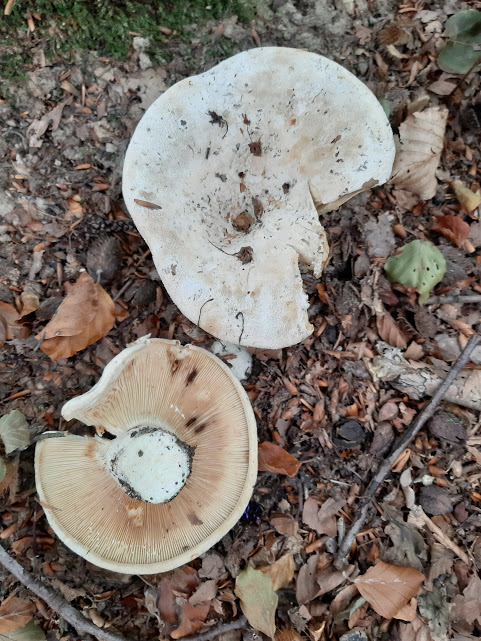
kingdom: Fungi
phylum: Basidiomycota
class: Agaricomycetes
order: Russulales
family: Russulaceae
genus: Lactifluus
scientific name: Lactifluus vellereus
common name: hvidfiltet mælkehat
